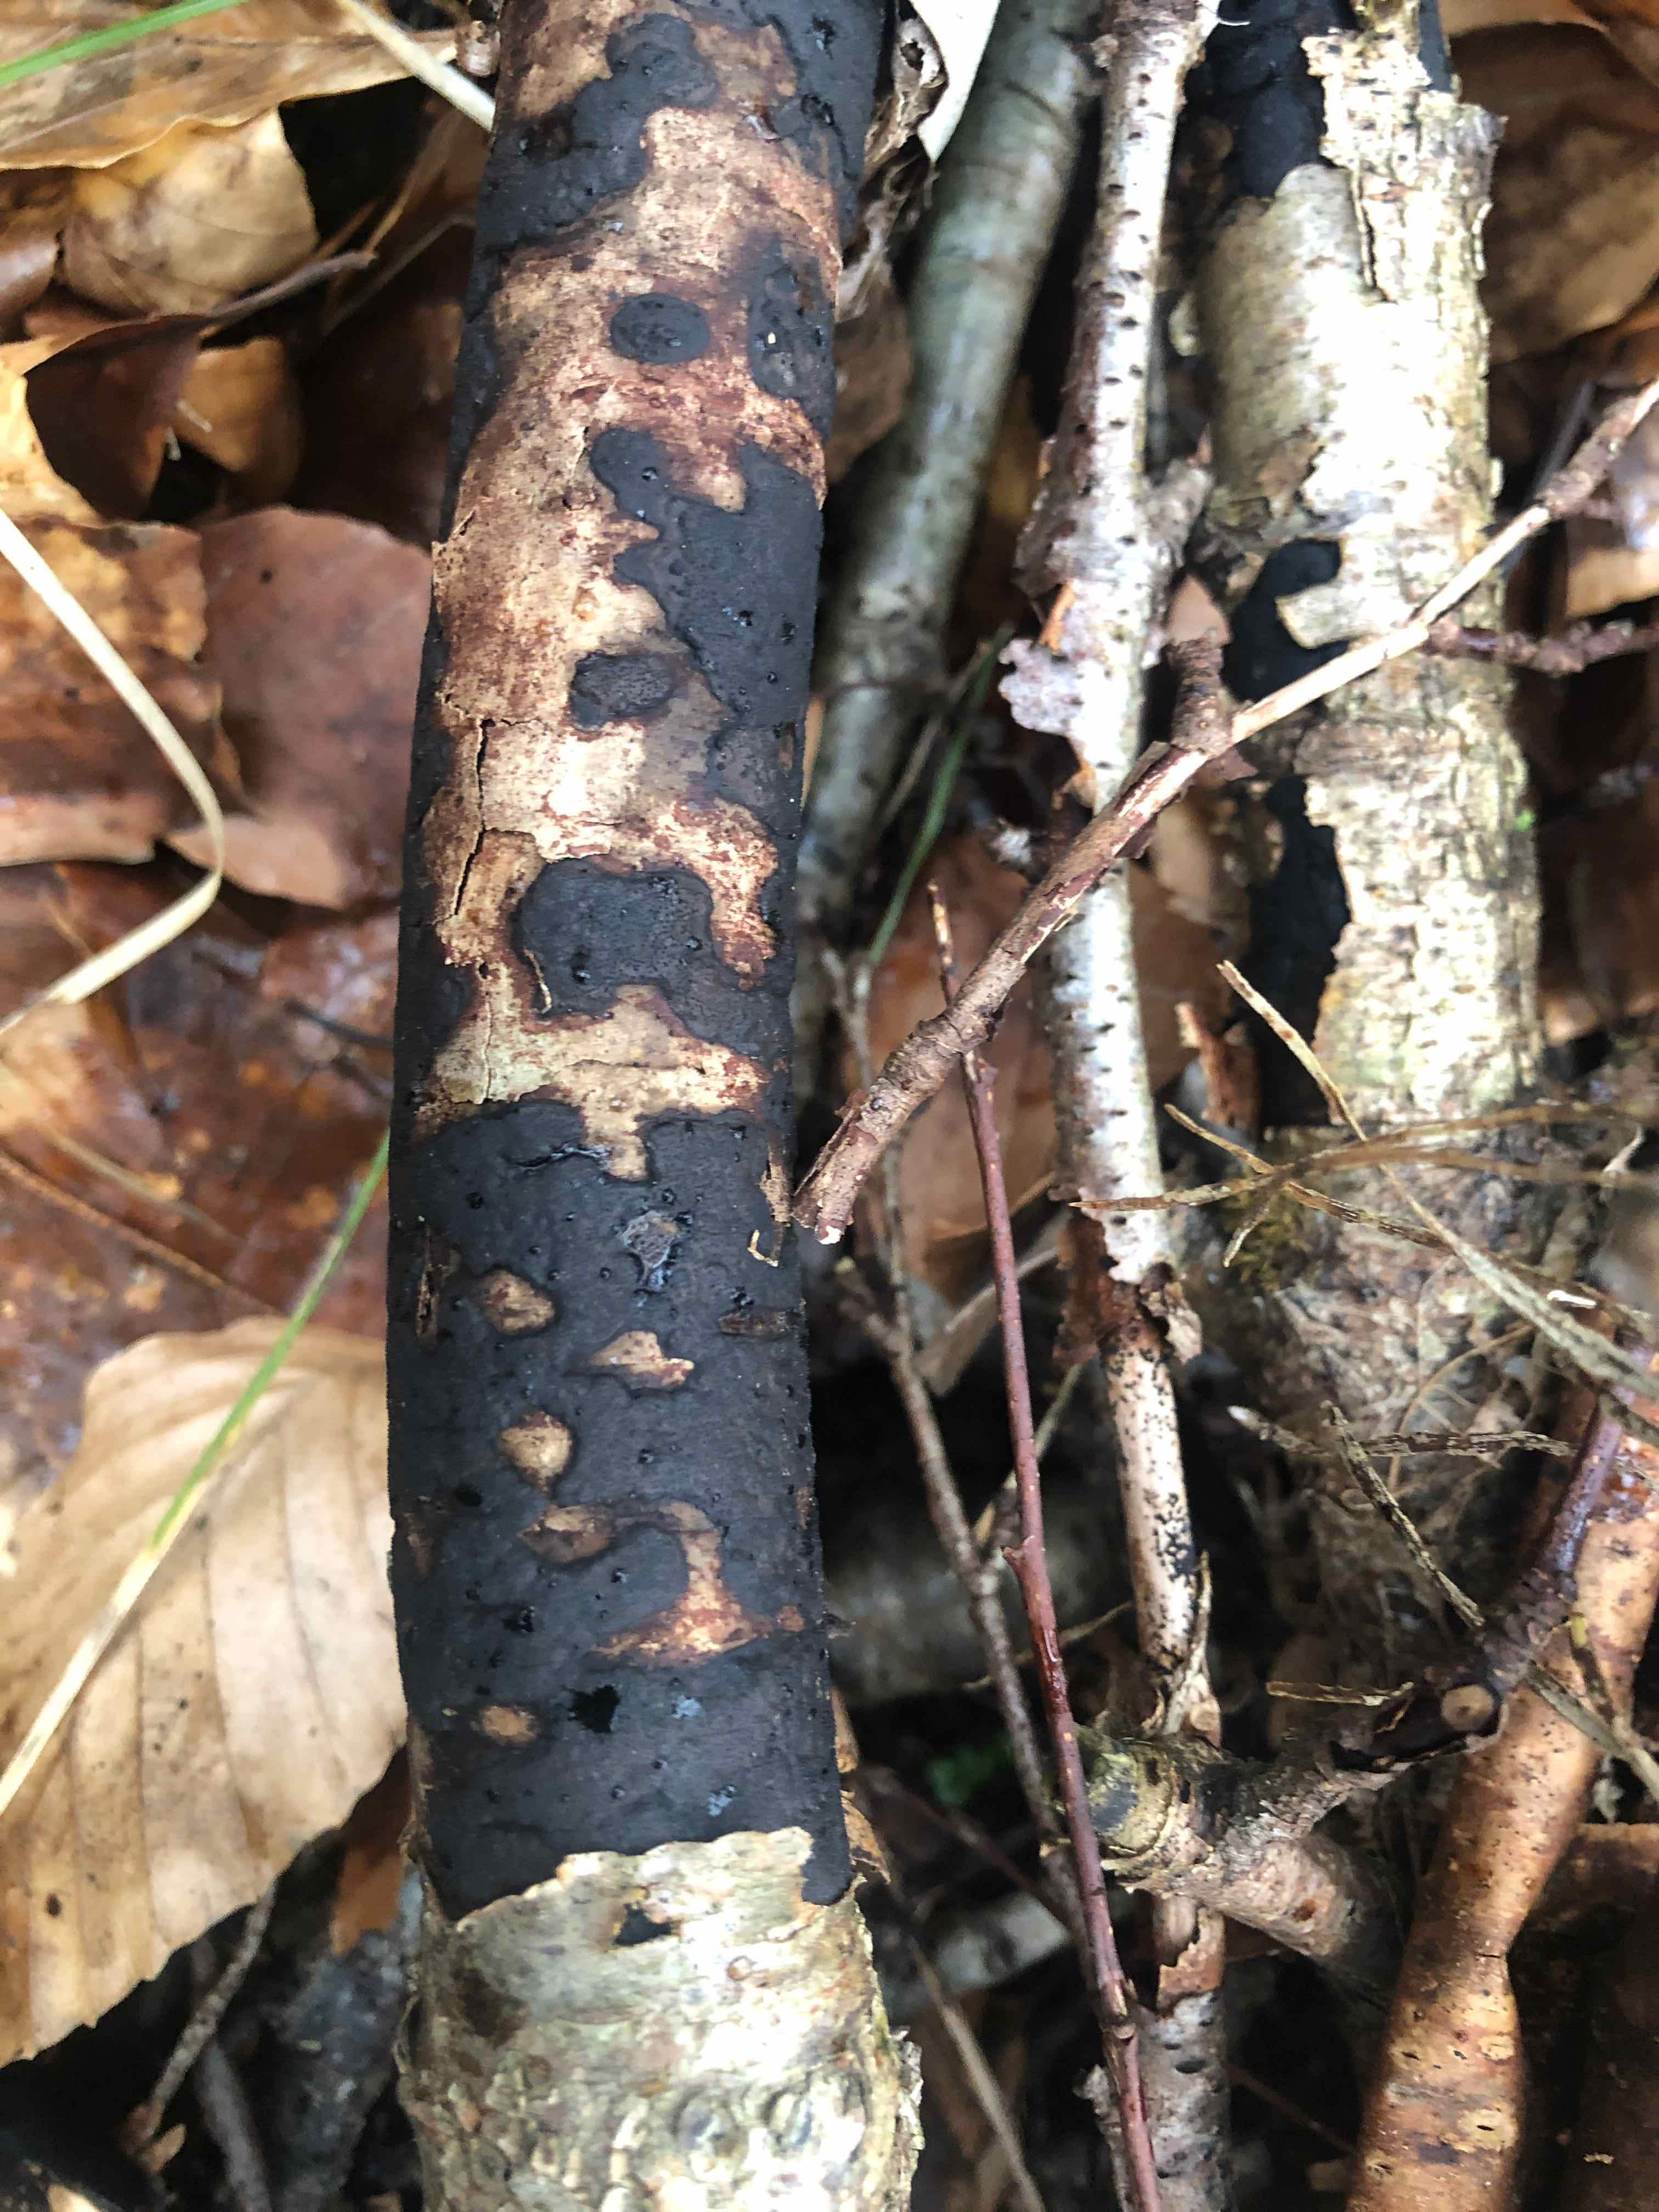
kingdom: Fungi
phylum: Ascomycota
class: Sordariomycetes
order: Xylariales
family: Diatrypaceae
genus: Diatrype
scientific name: Diatrype
